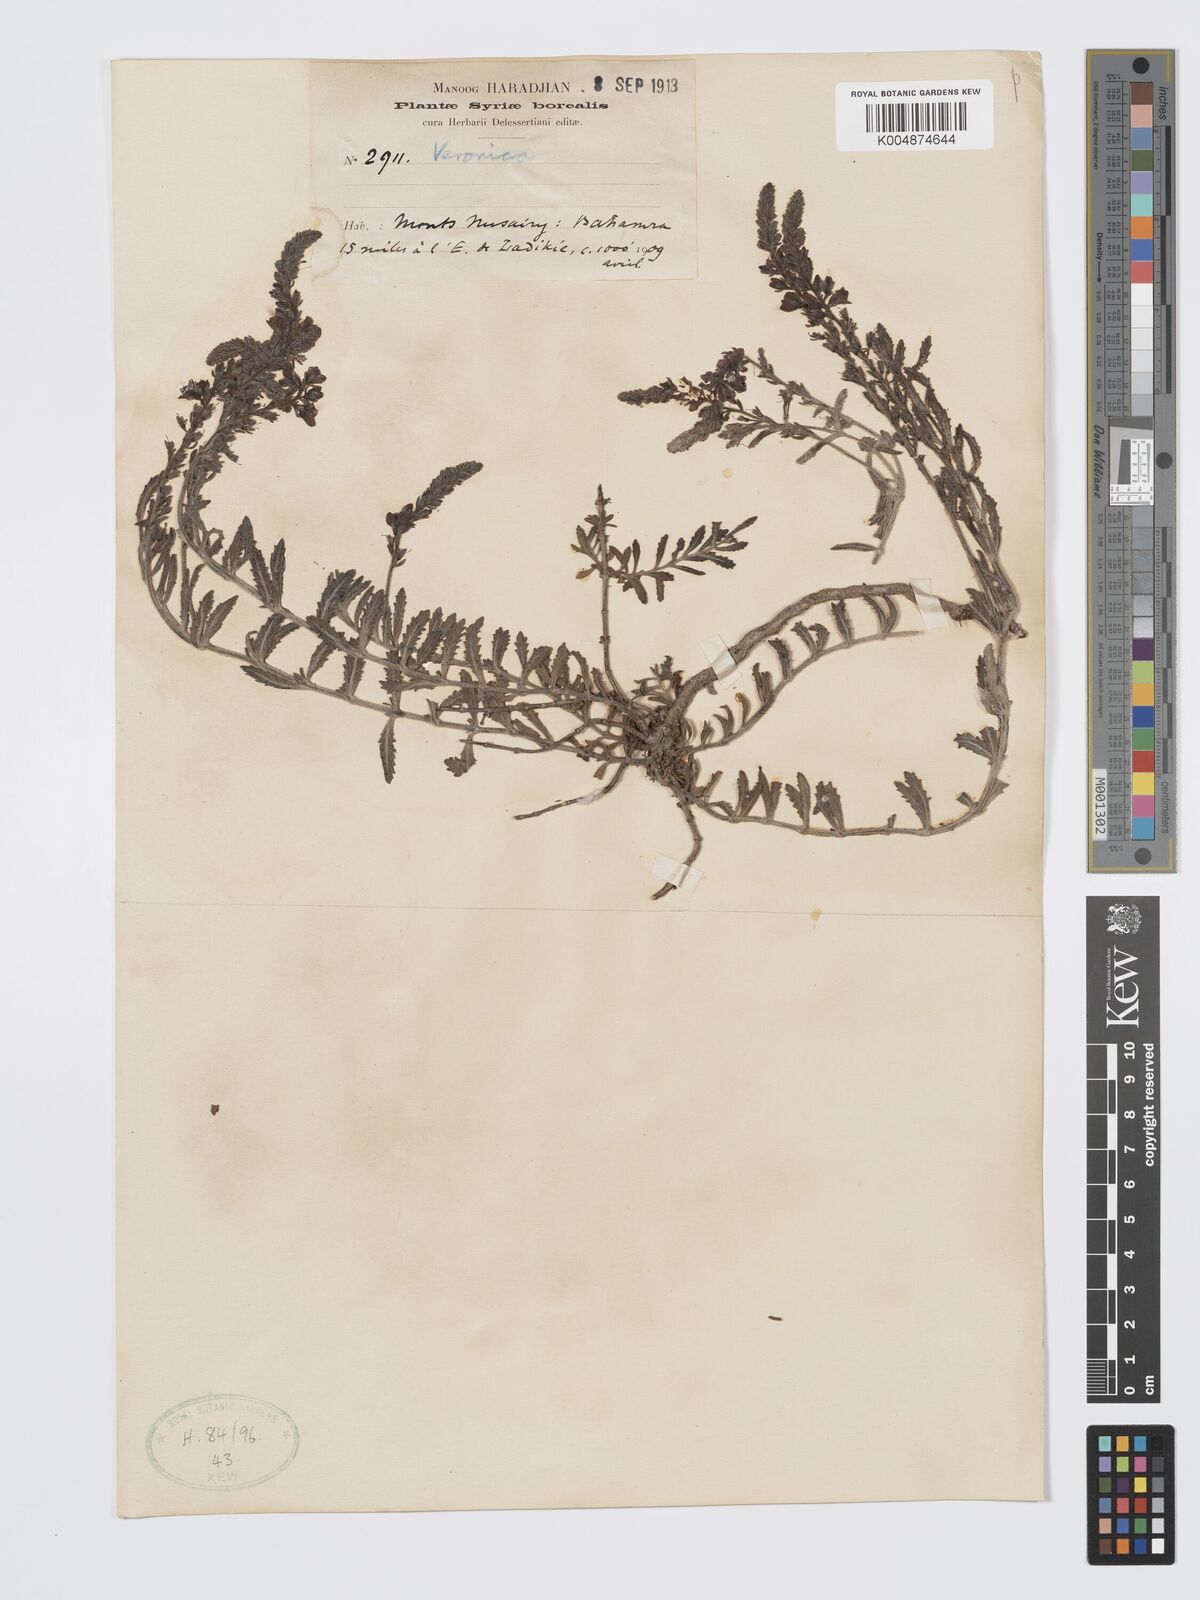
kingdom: Plantae
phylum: Tracheophyta
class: Magnoliopsida
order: Lamiales
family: Plantaginaceae
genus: Veronica
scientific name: Veronica
